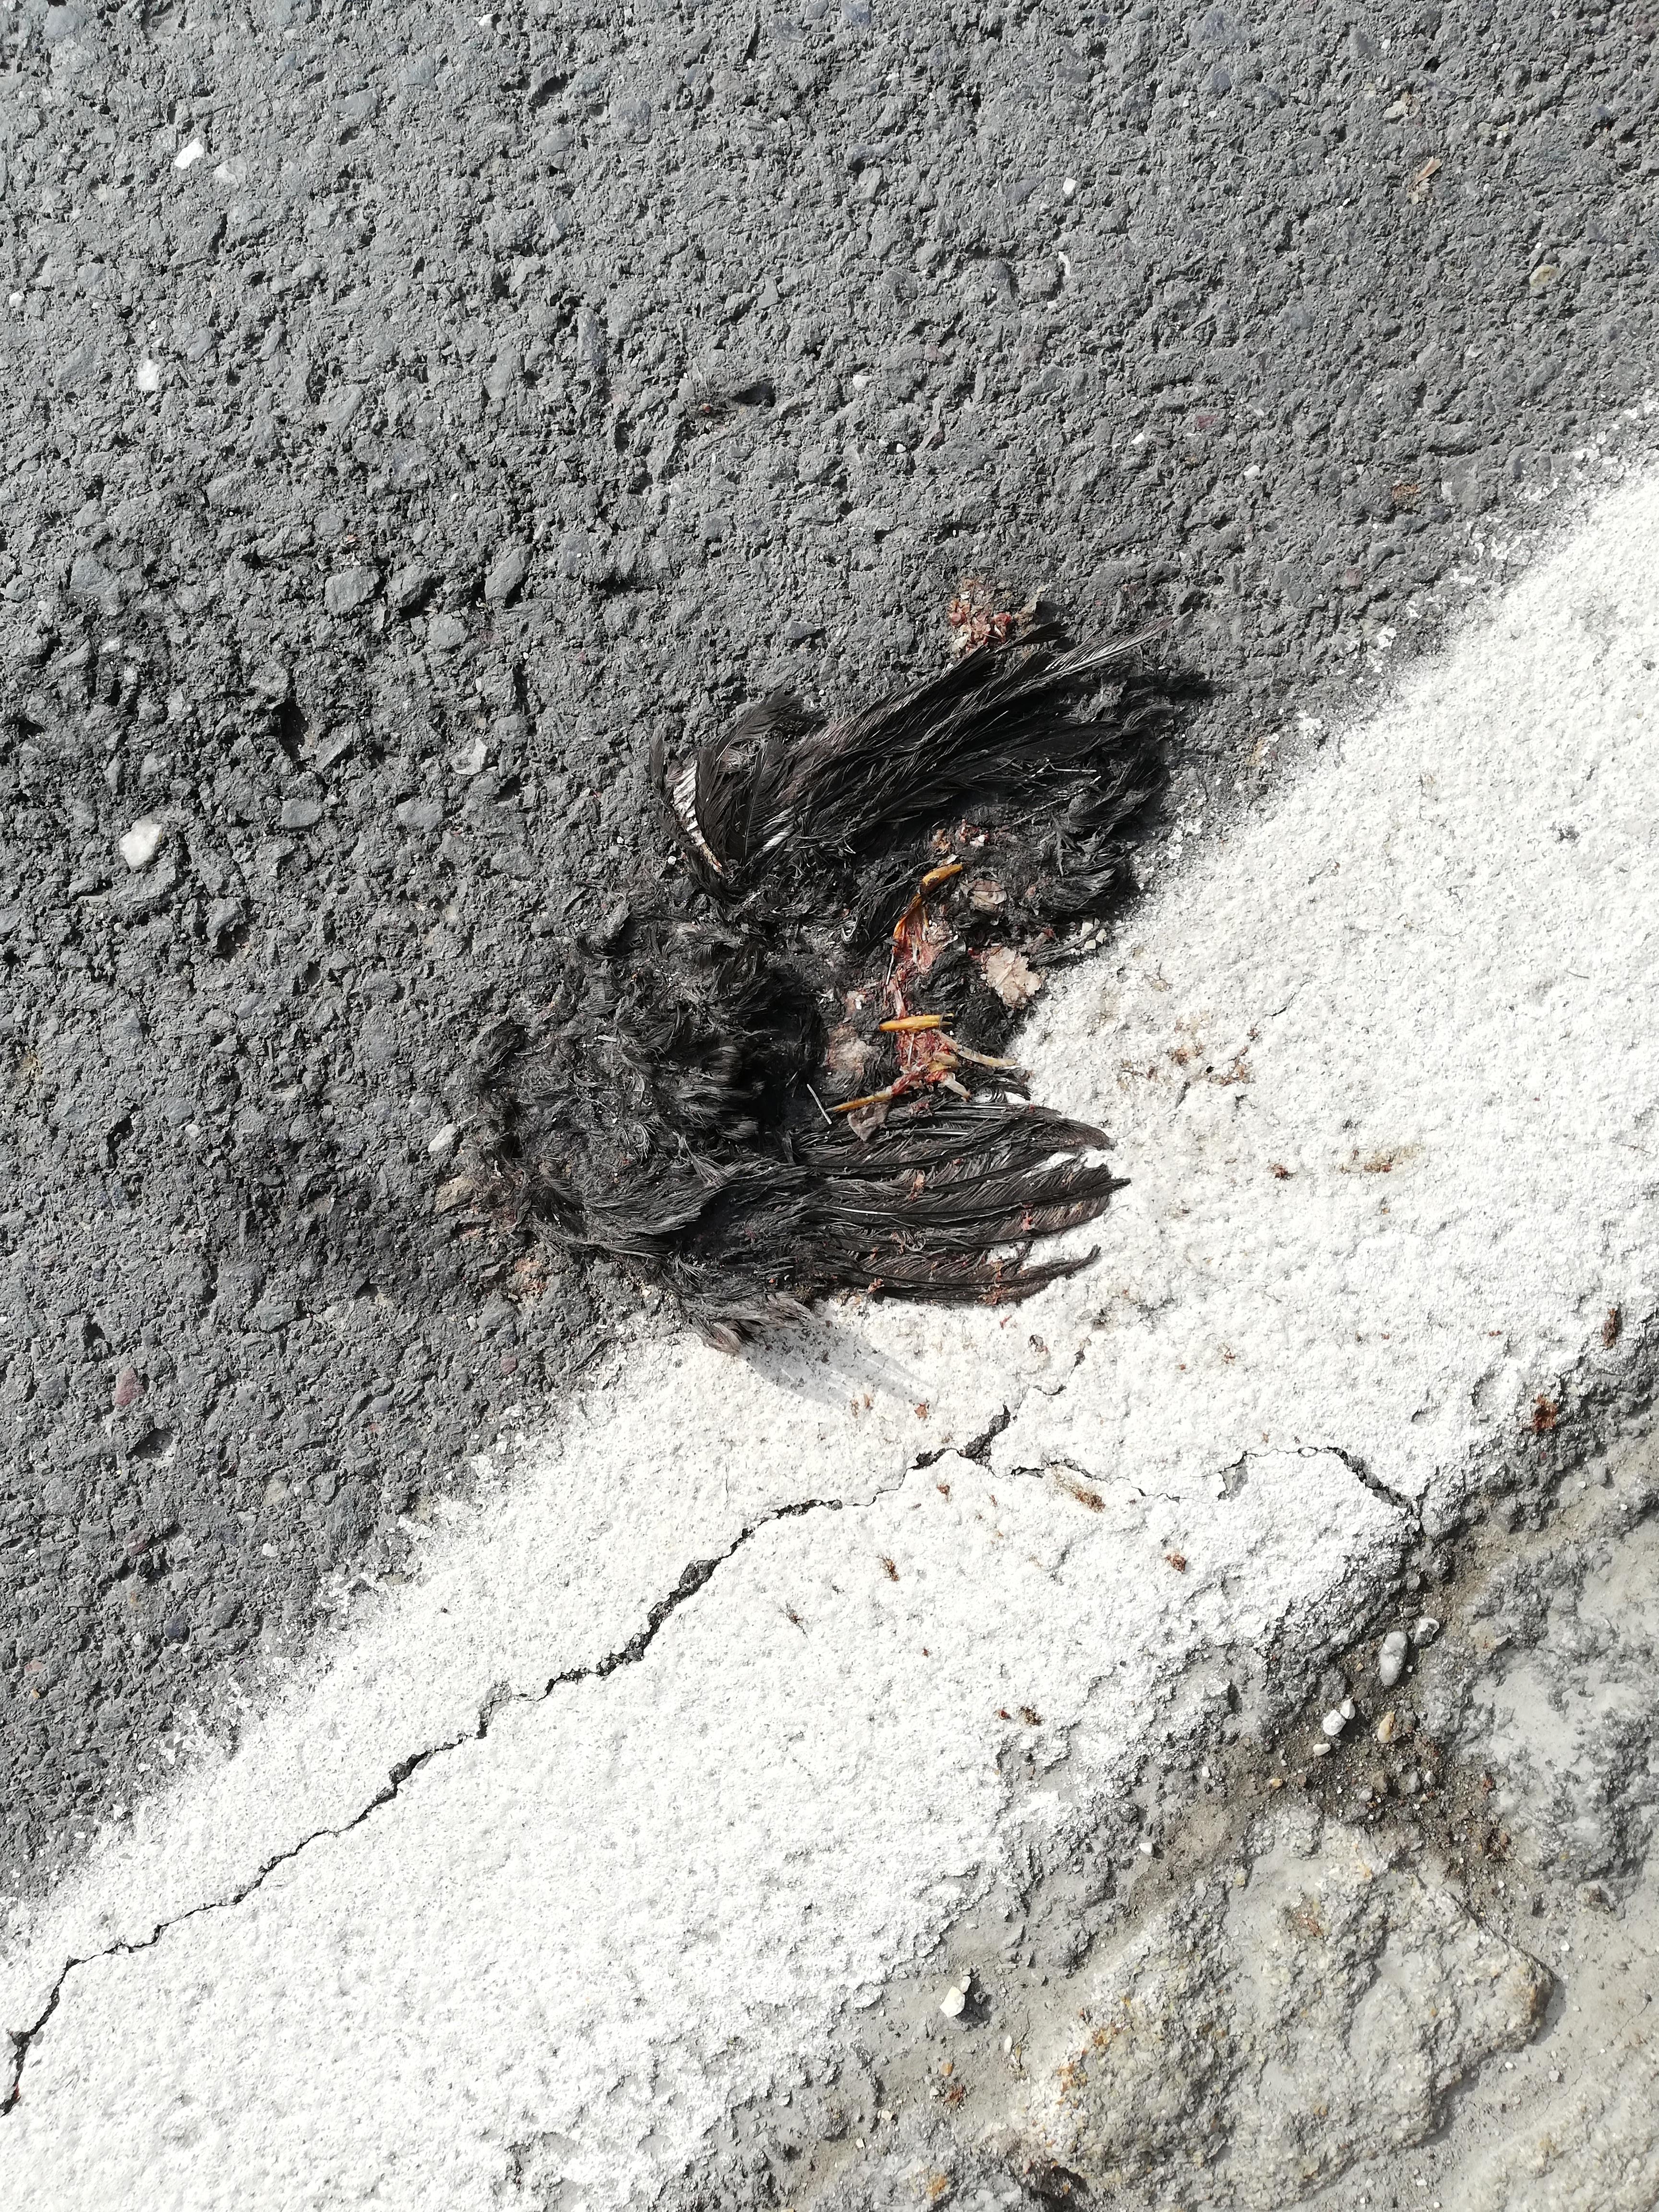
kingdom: Animalia
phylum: Chordata
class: Aves
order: Passeriformes
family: Turdidae
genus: Turdus
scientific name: Turdus merula
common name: Common blackbird
